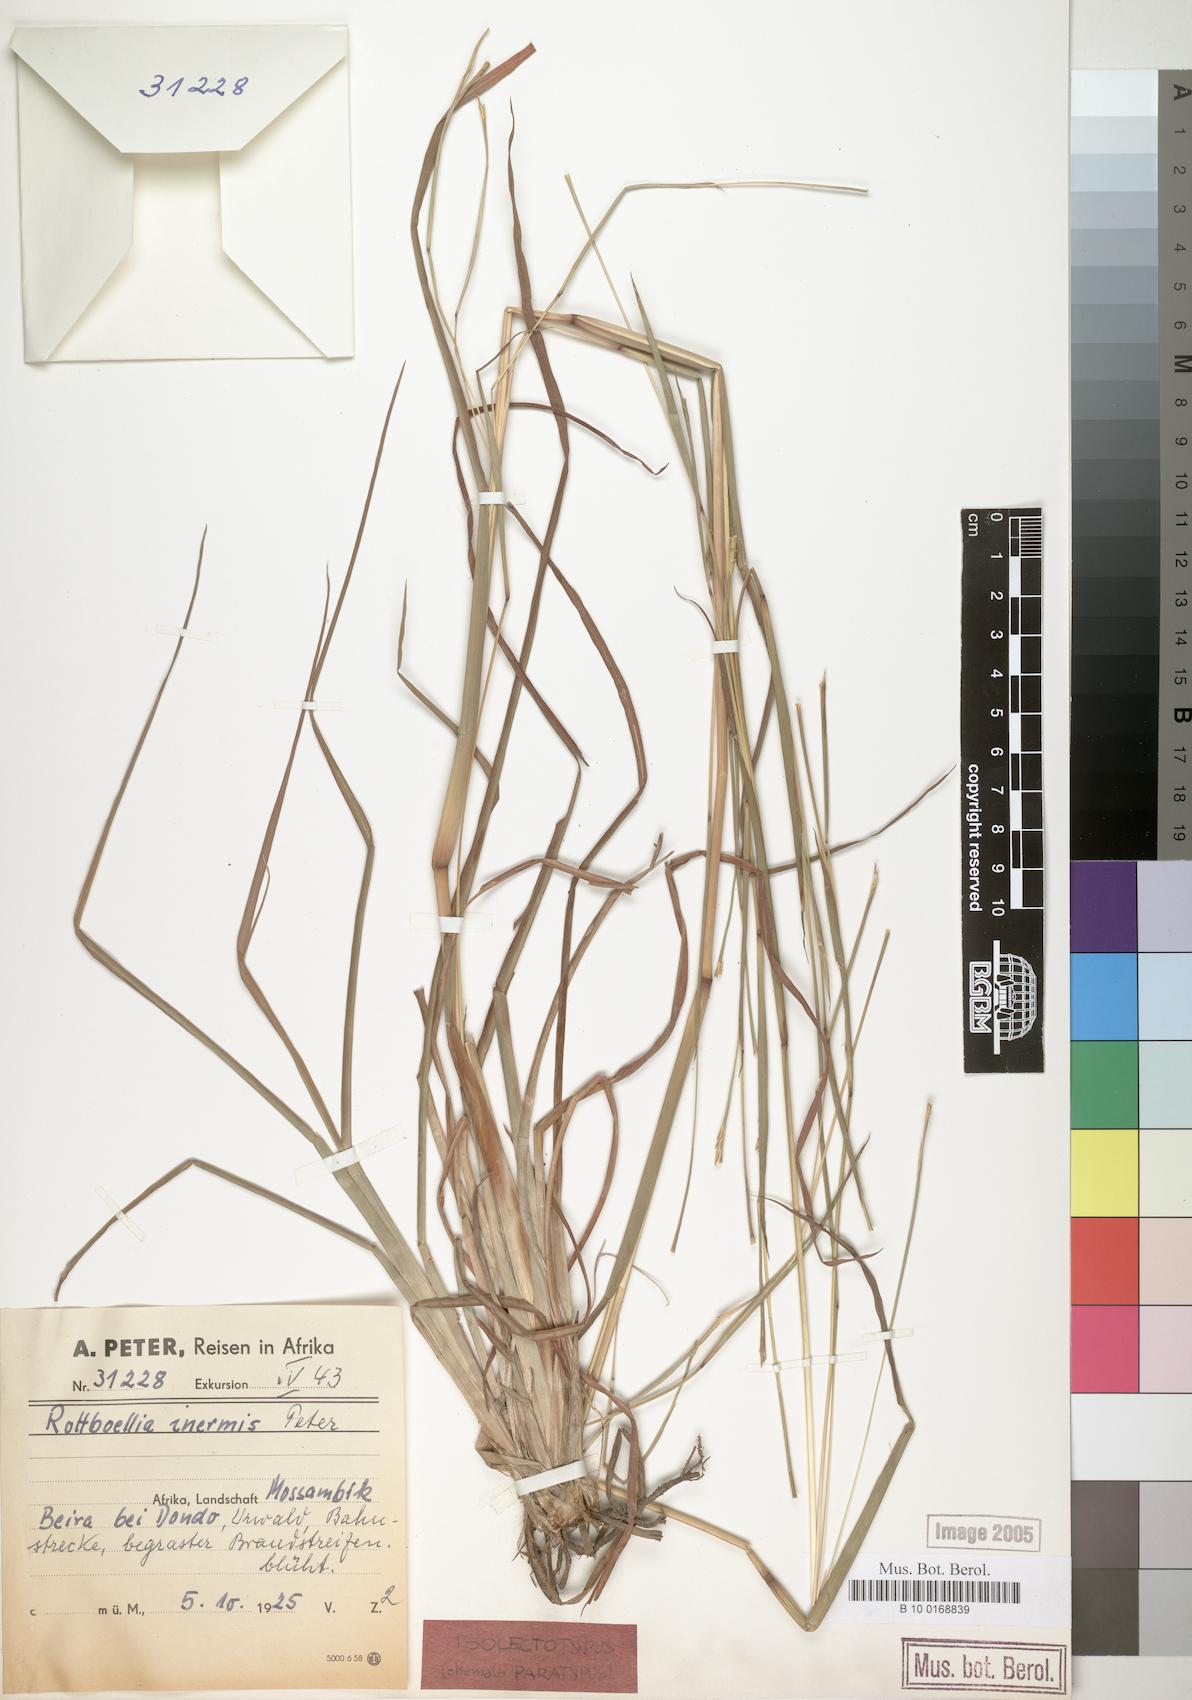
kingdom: Plantae
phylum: Tracheophyta
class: Liliopsida
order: Poales
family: Poaceae
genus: Rottboellia
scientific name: Rottboellia lepidura
